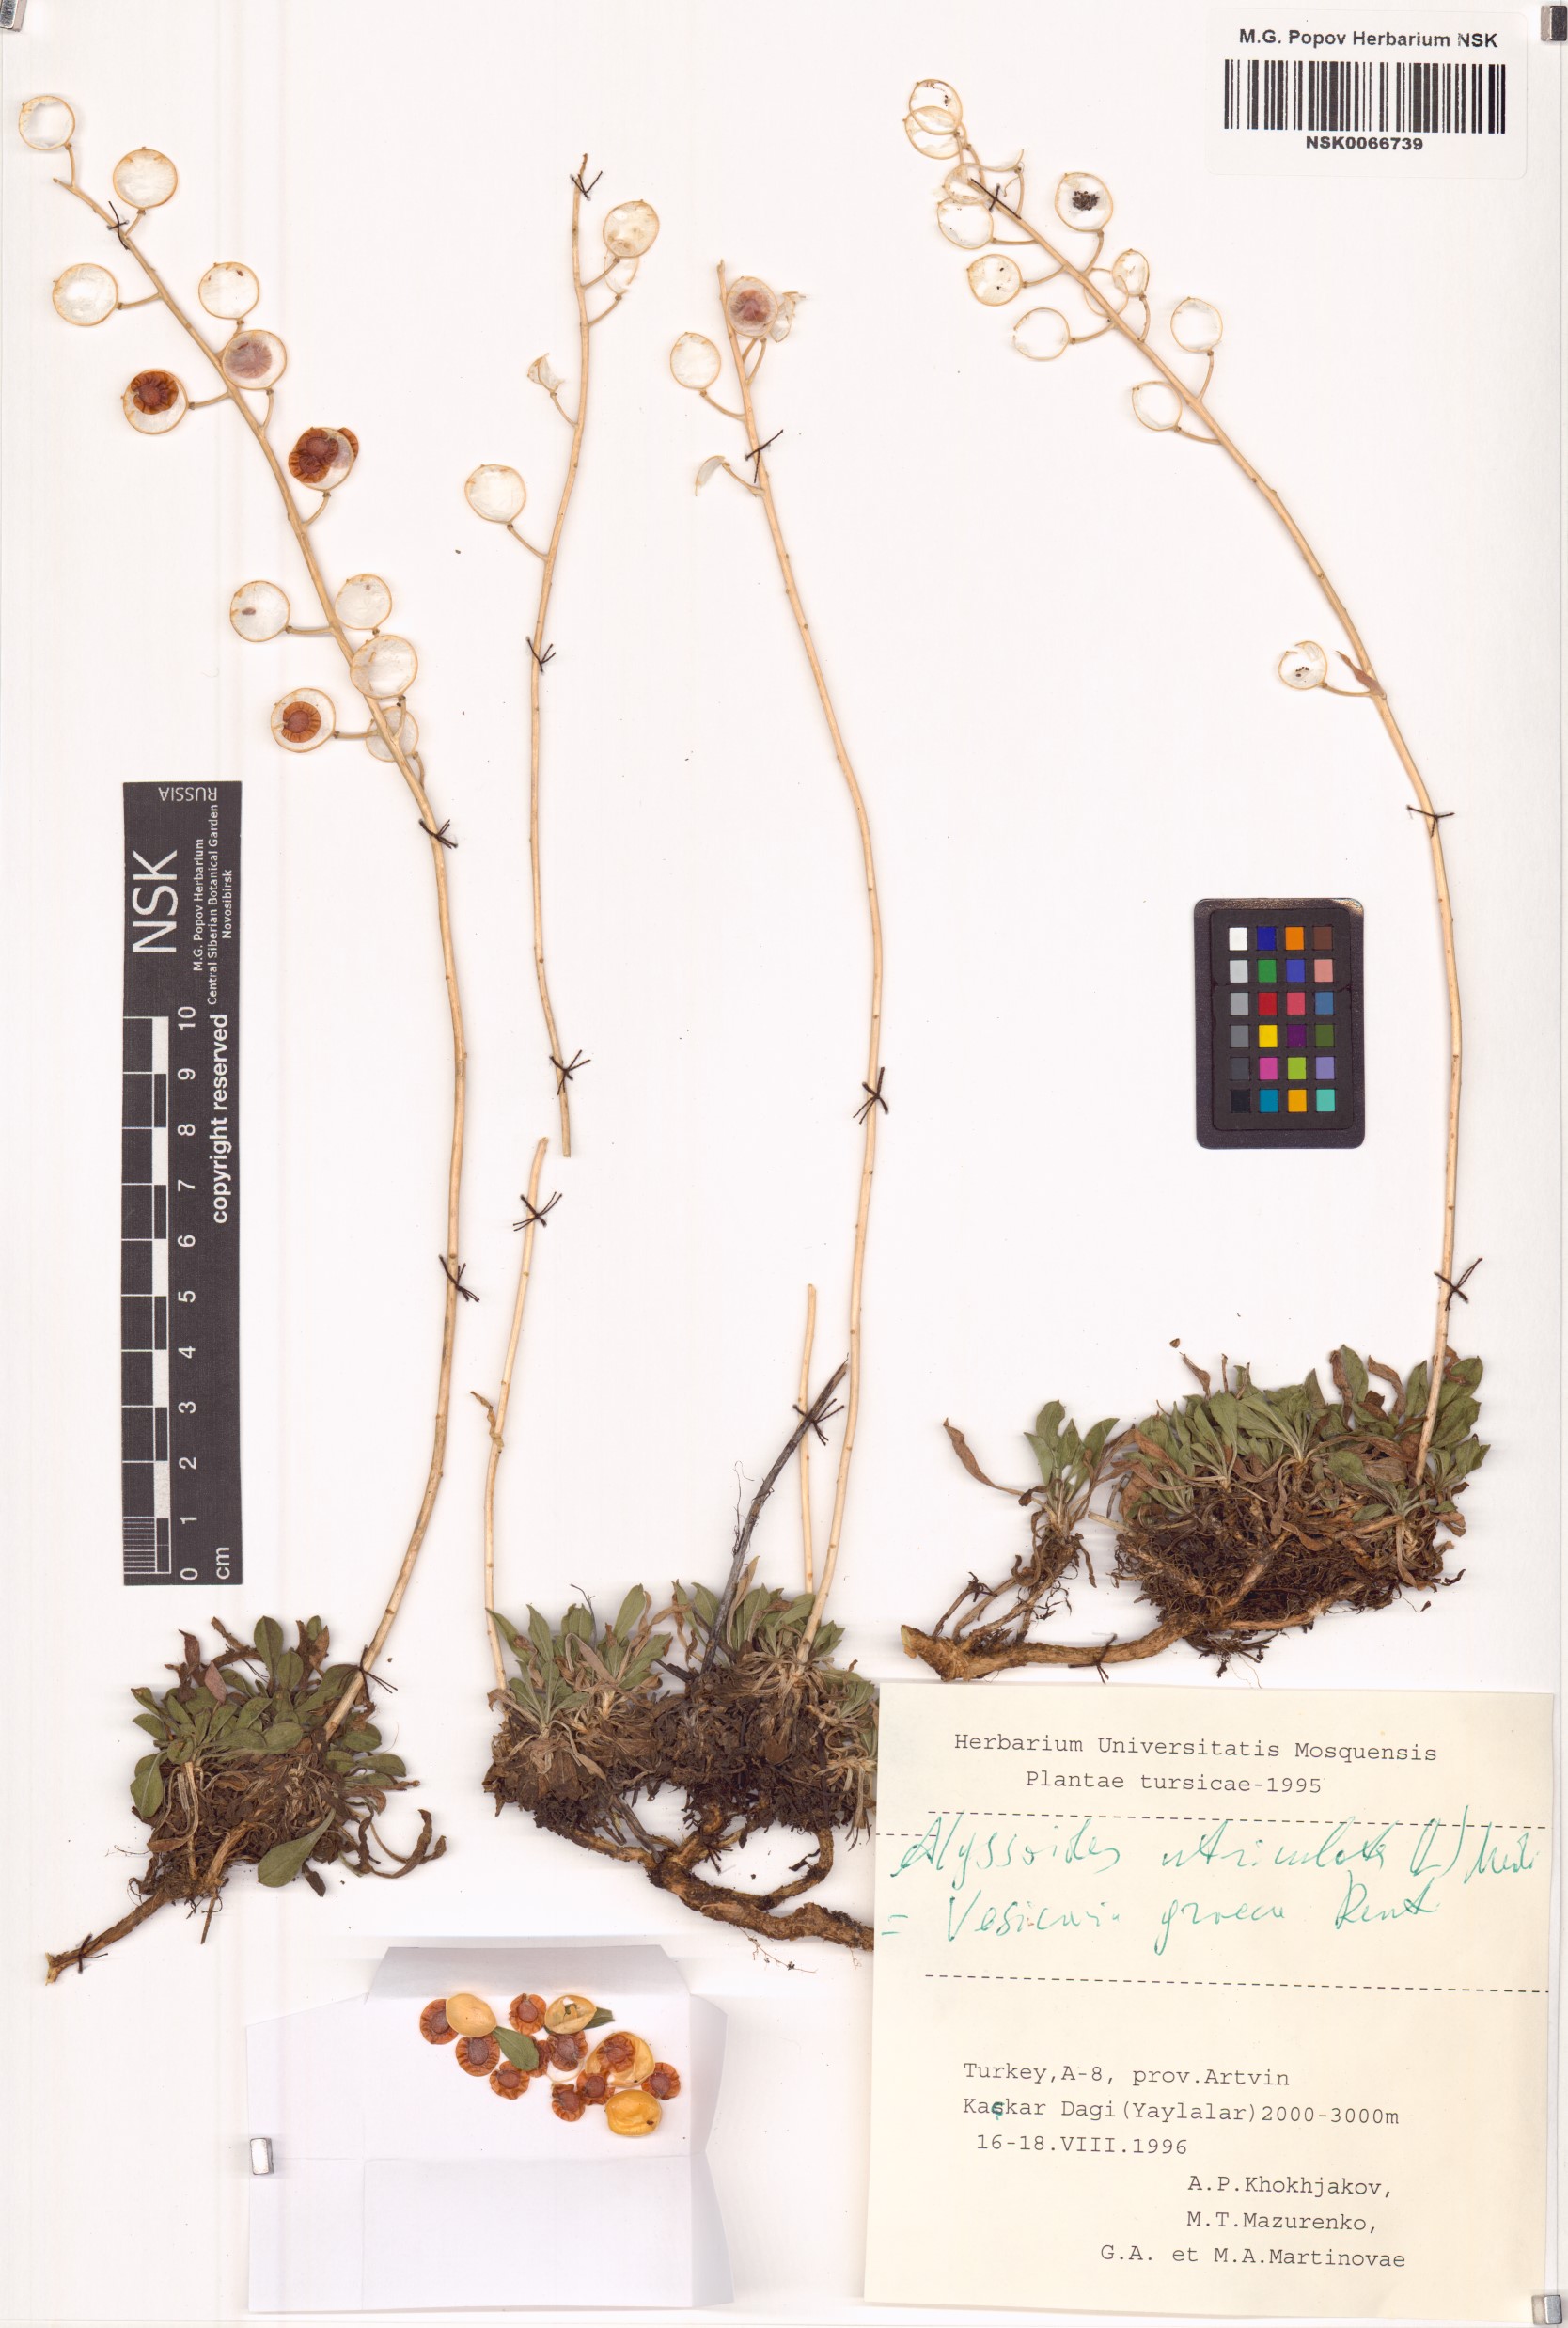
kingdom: Plantae
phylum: Tracheophyta
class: Magnoliopsida
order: Brassicales
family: Brassicaceae
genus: Alyssoides
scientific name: Alyssoides utriculata
